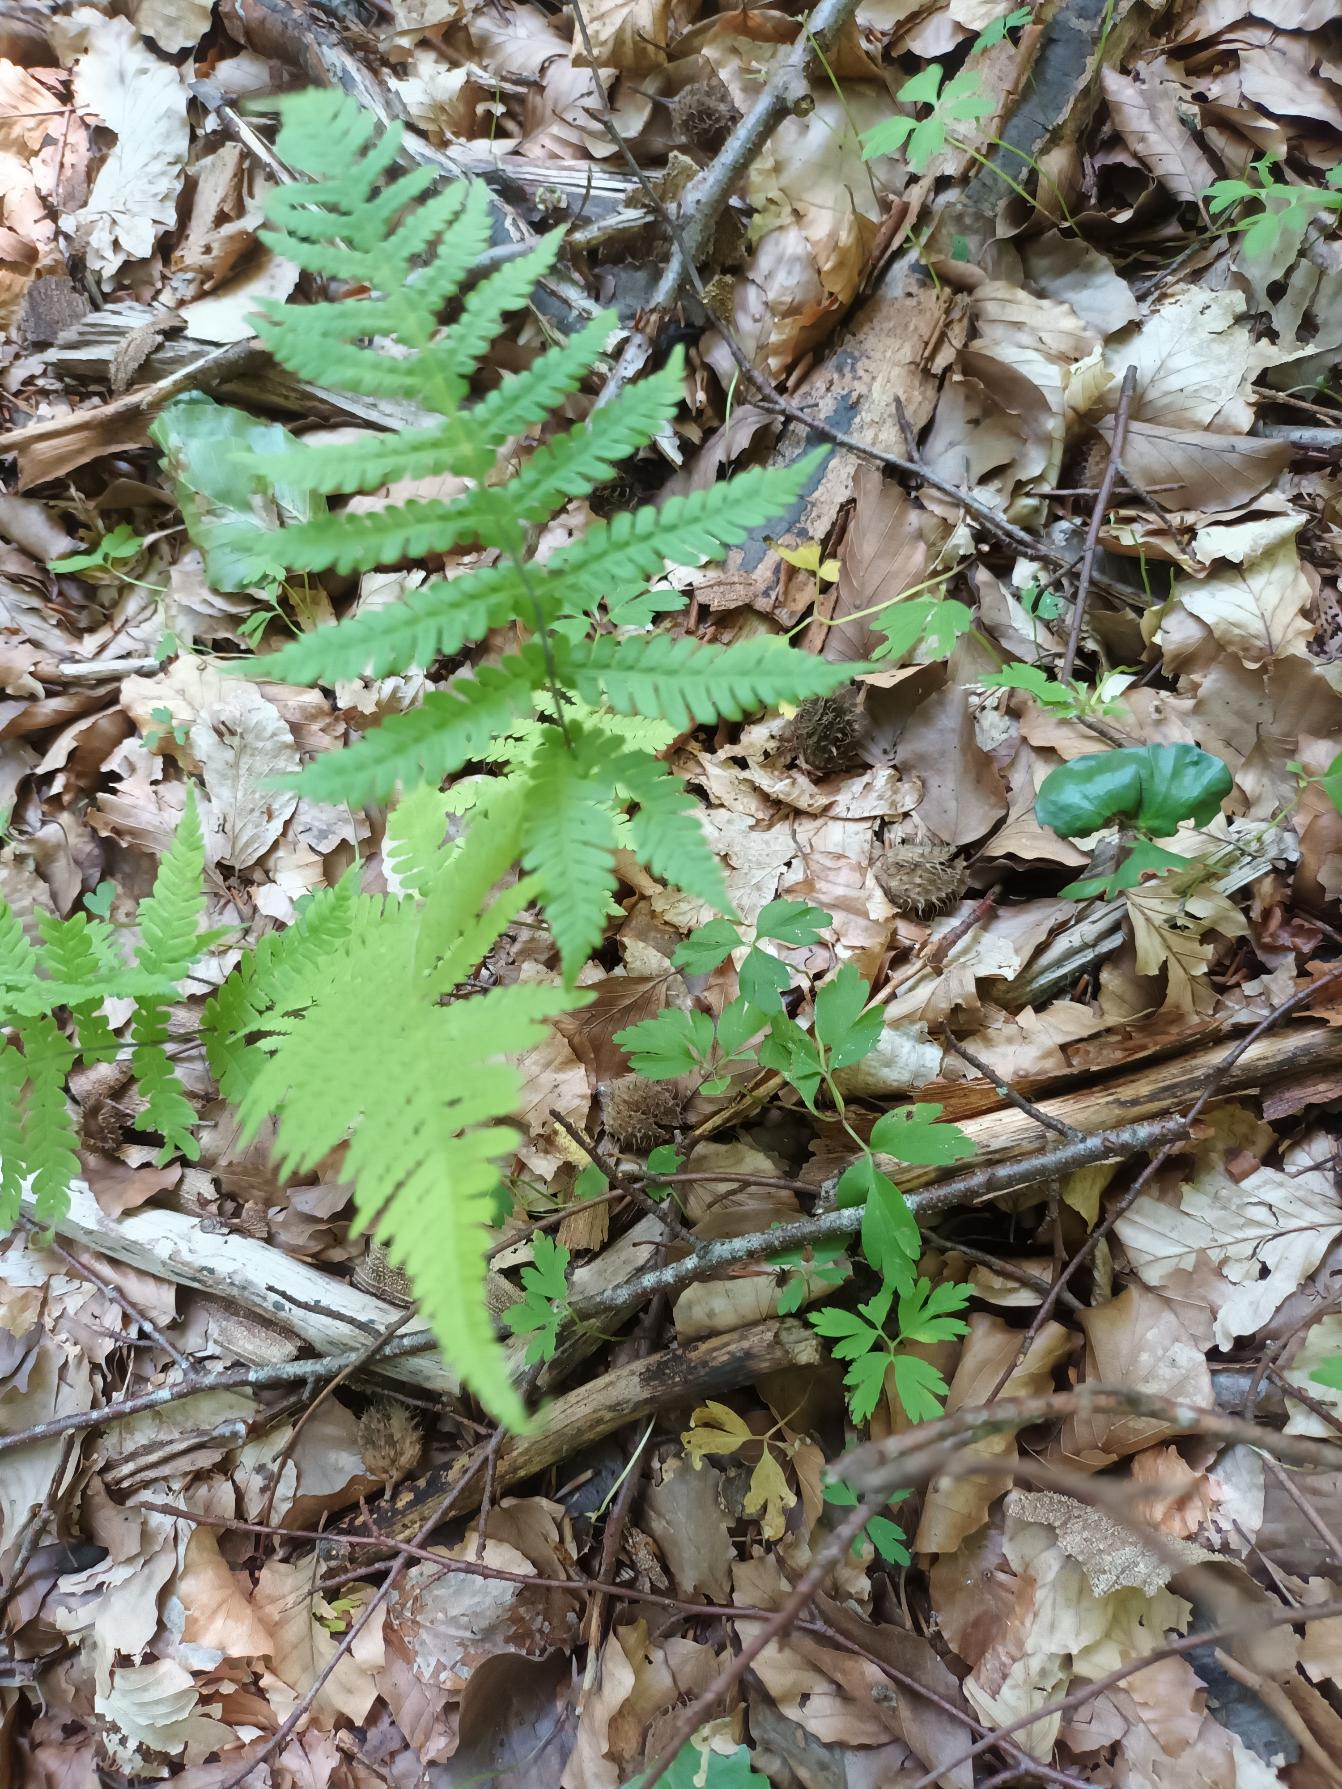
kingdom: Plantae
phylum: Tracheophyta
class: Polypodiopsida
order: Polypodiales
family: Thelypteridaceae
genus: Phegopteris
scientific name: Phegopteris connectilis
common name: Dunet egebregne
